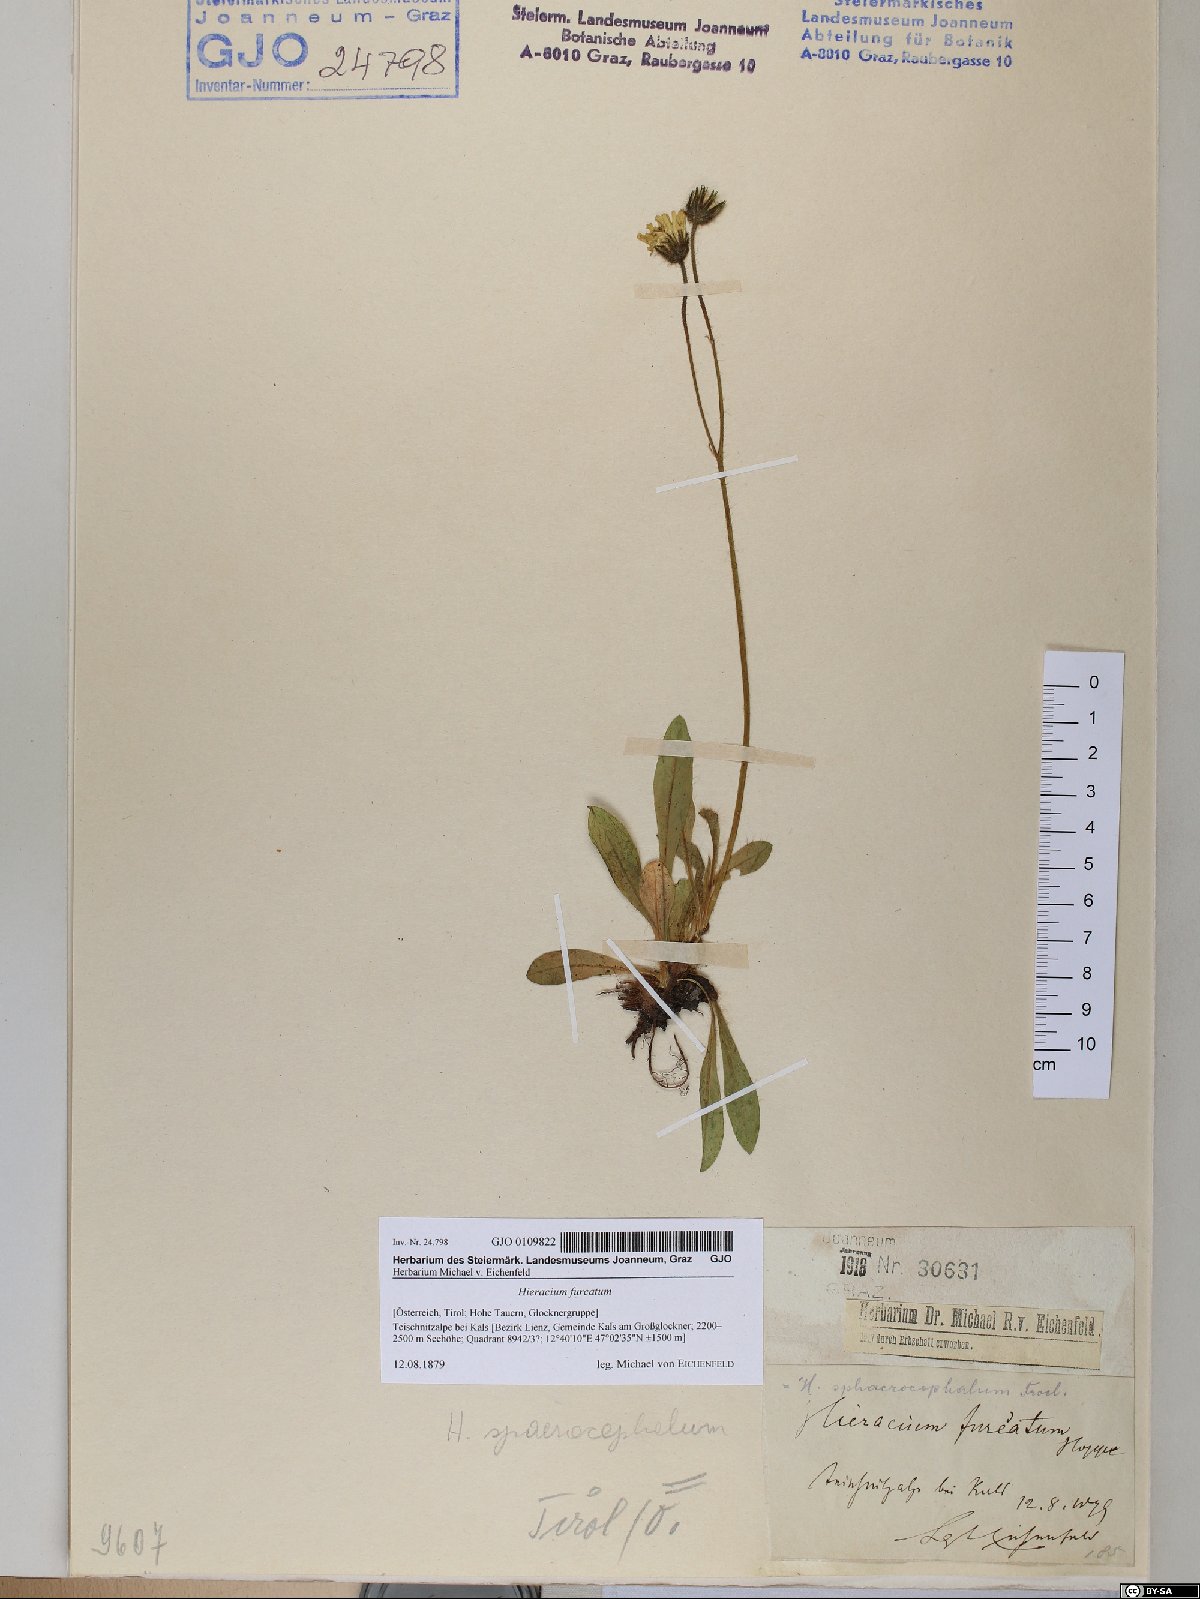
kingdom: Plantae
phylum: Tracheophyta
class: Magnoliopsida
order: Asterales
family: Asteraceae
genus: Pilosella
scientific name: Pilosella sphaerocephala
